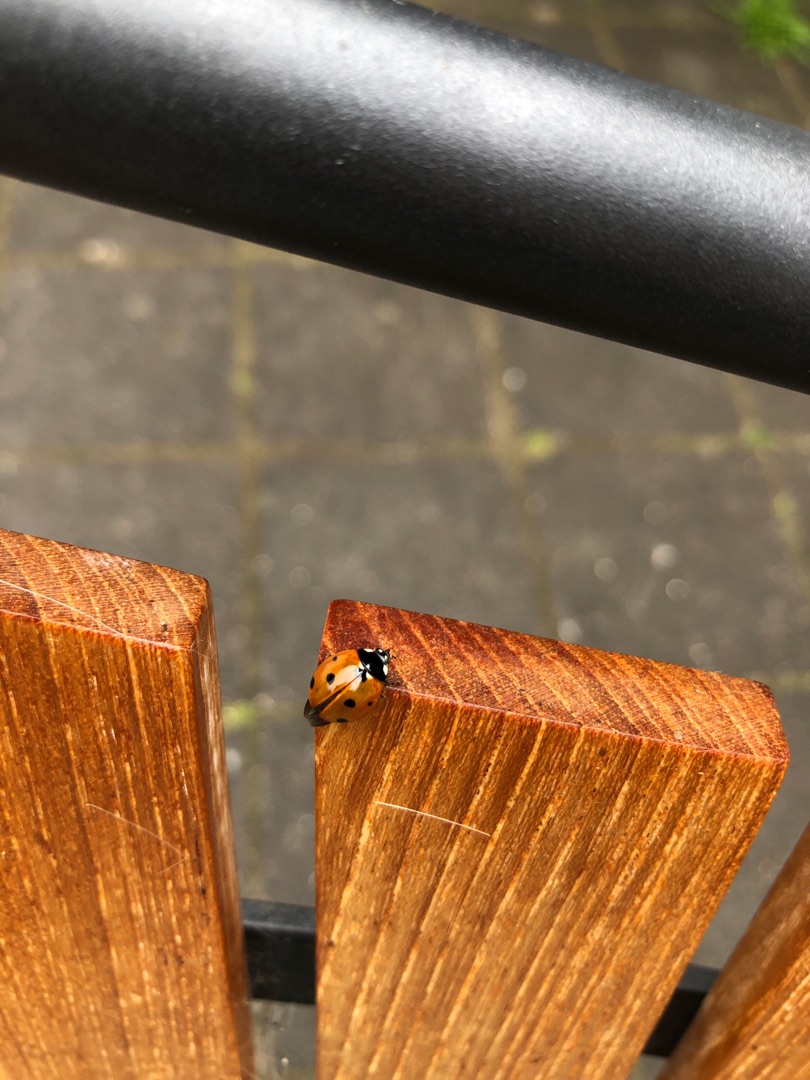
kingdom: Animalia
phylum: Arthropoda
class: Insecta
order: Coleoptera
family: Coccinellidae
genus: Coccinella
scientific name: Coccinella septempunctata
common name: Syvplettet mariehøne
